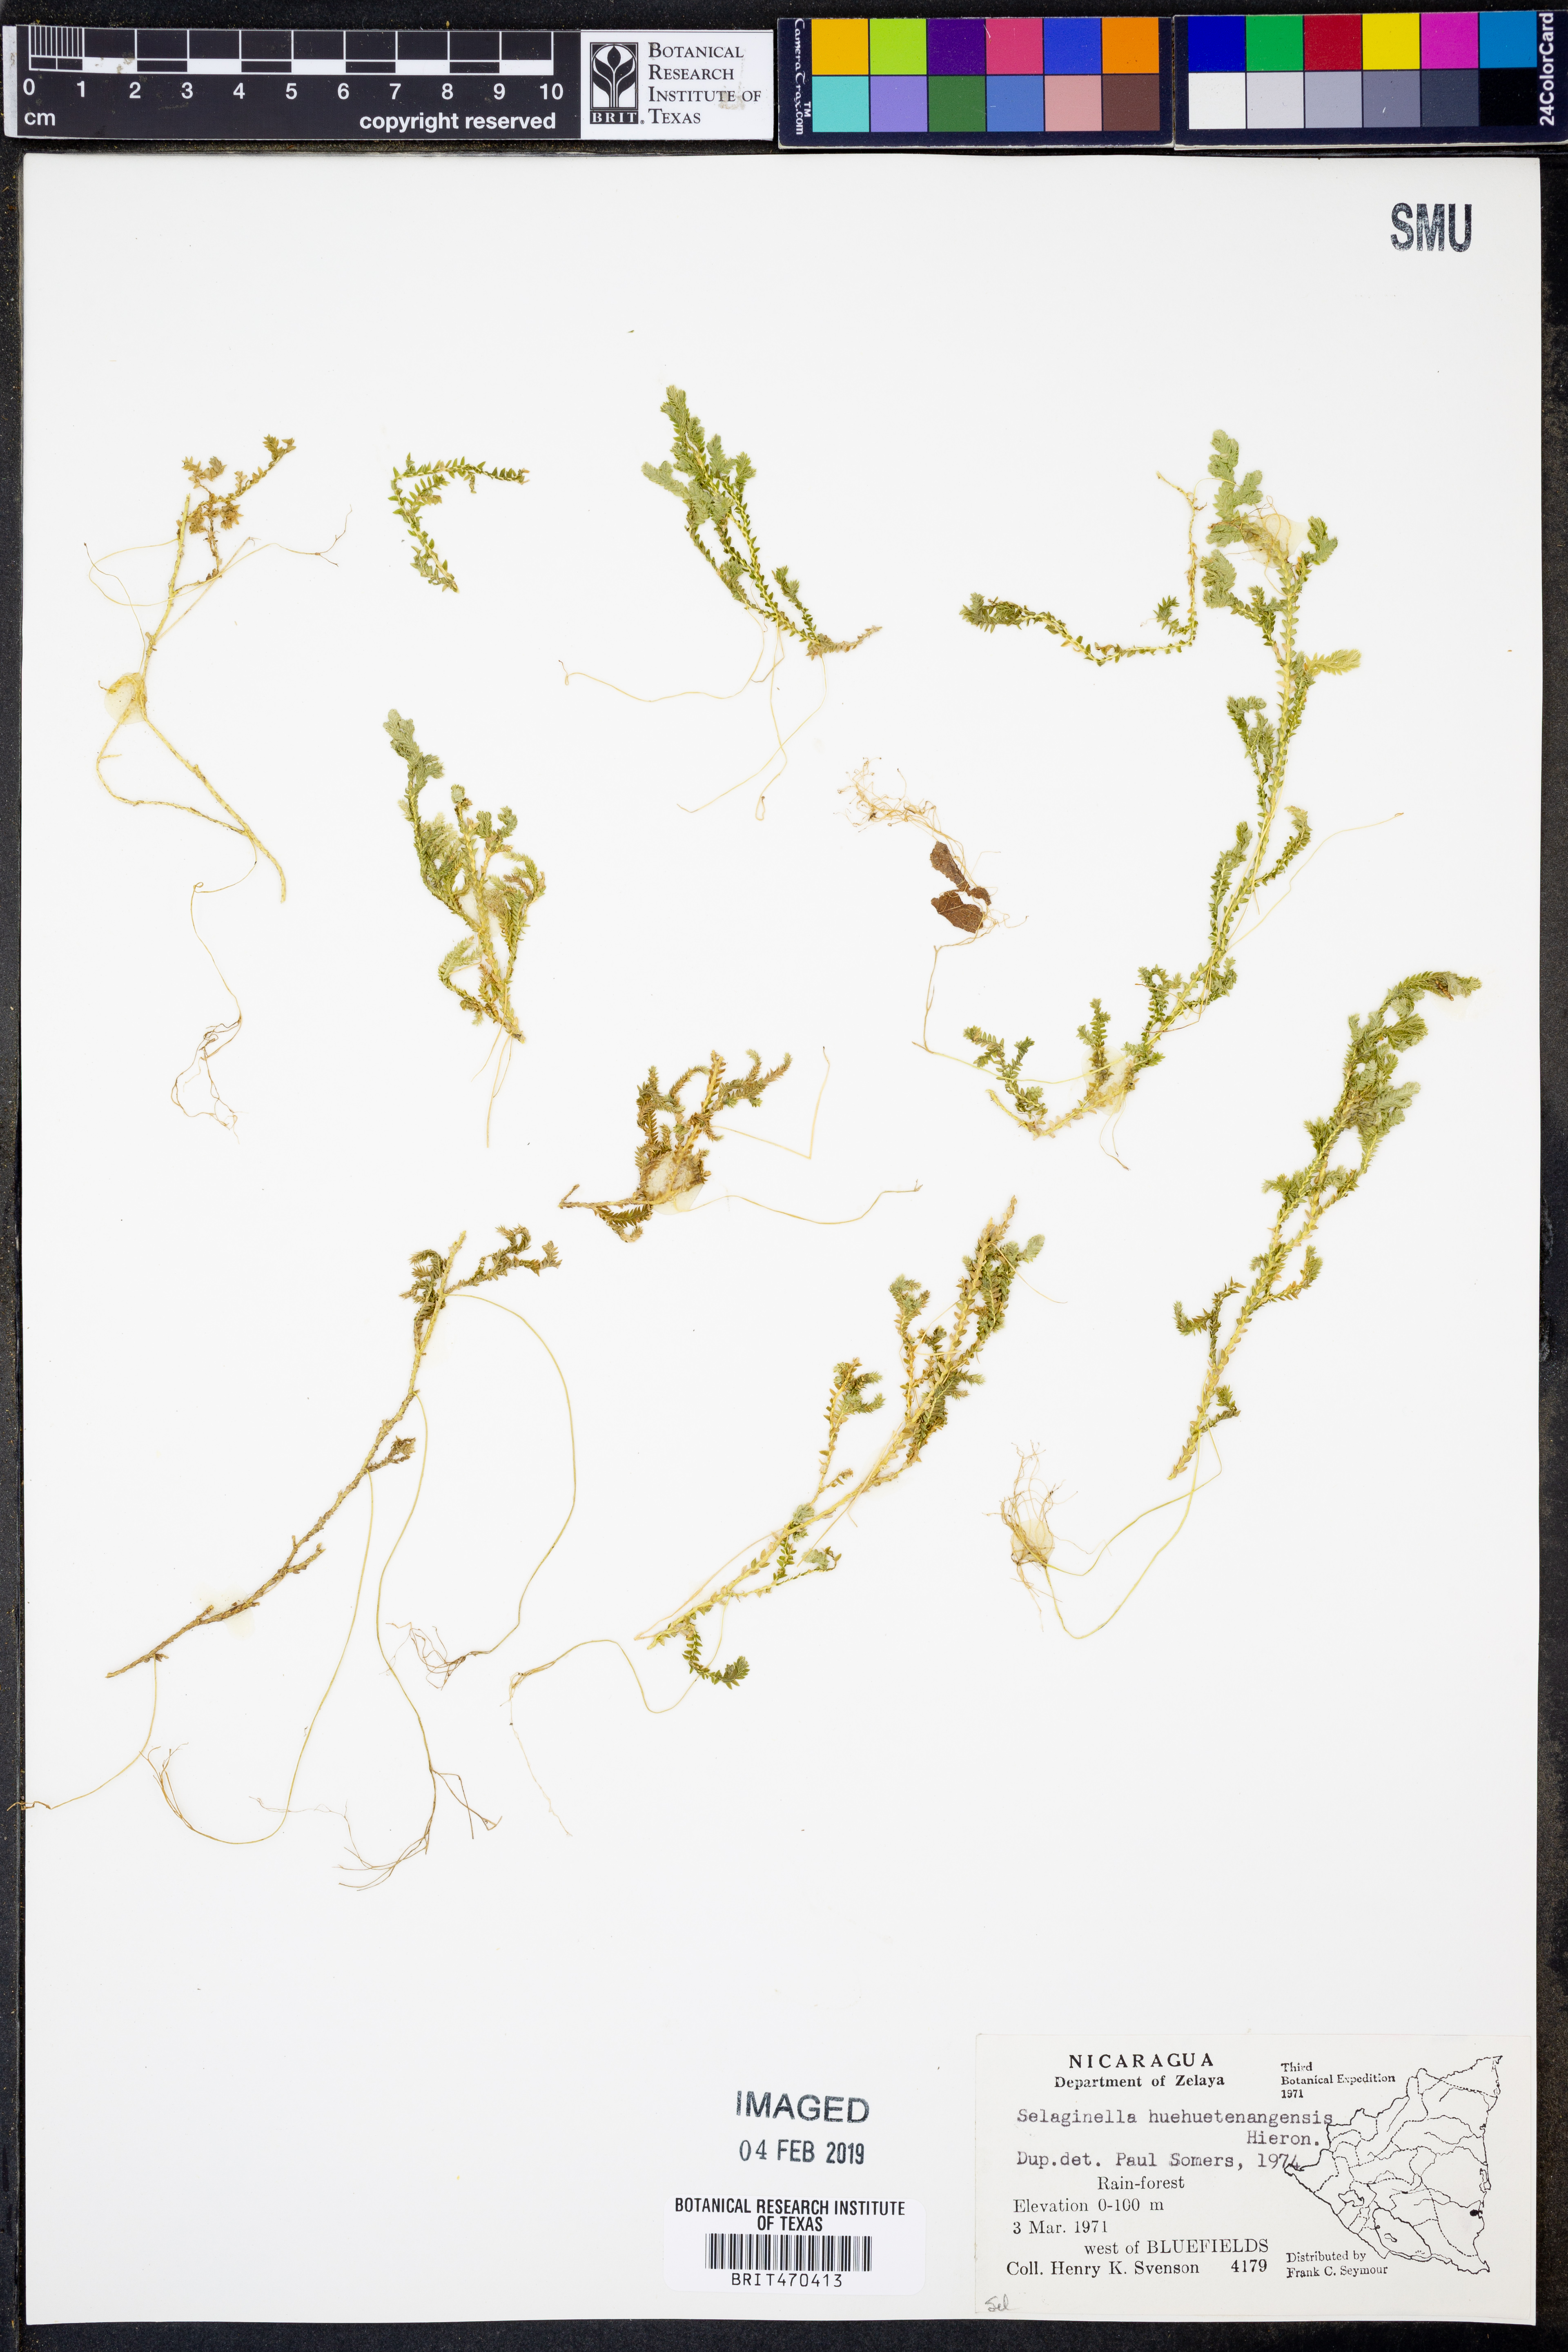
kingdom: Plantae
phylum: Tracheophyta
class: Lycopodiopsida
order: Selaginellales
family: Selaginellaceae
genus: Selaginella
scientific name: Selaginella huehuetenangensis
